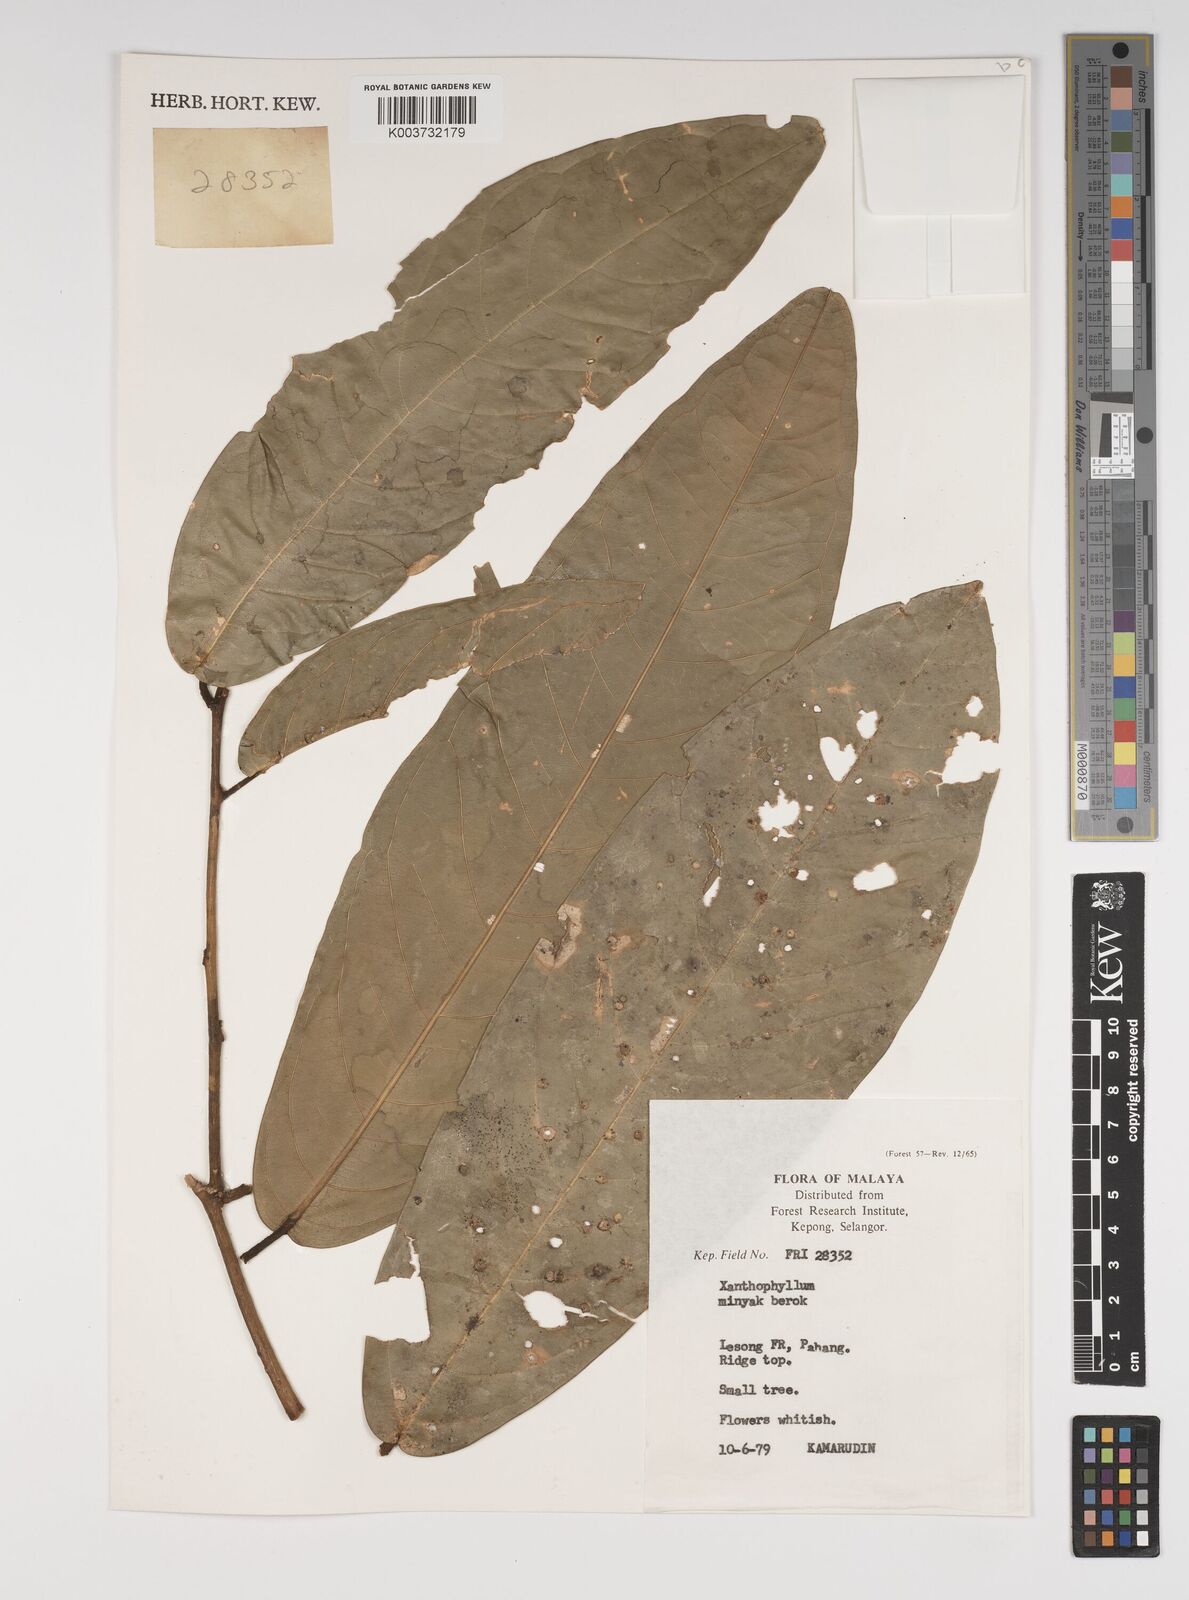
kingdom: Plantae
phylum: Tracheophyta
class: Magnoliopsida
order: Fabales
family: Polygalaceae
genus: Xanthophyllum
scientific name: Xanthophyllum
